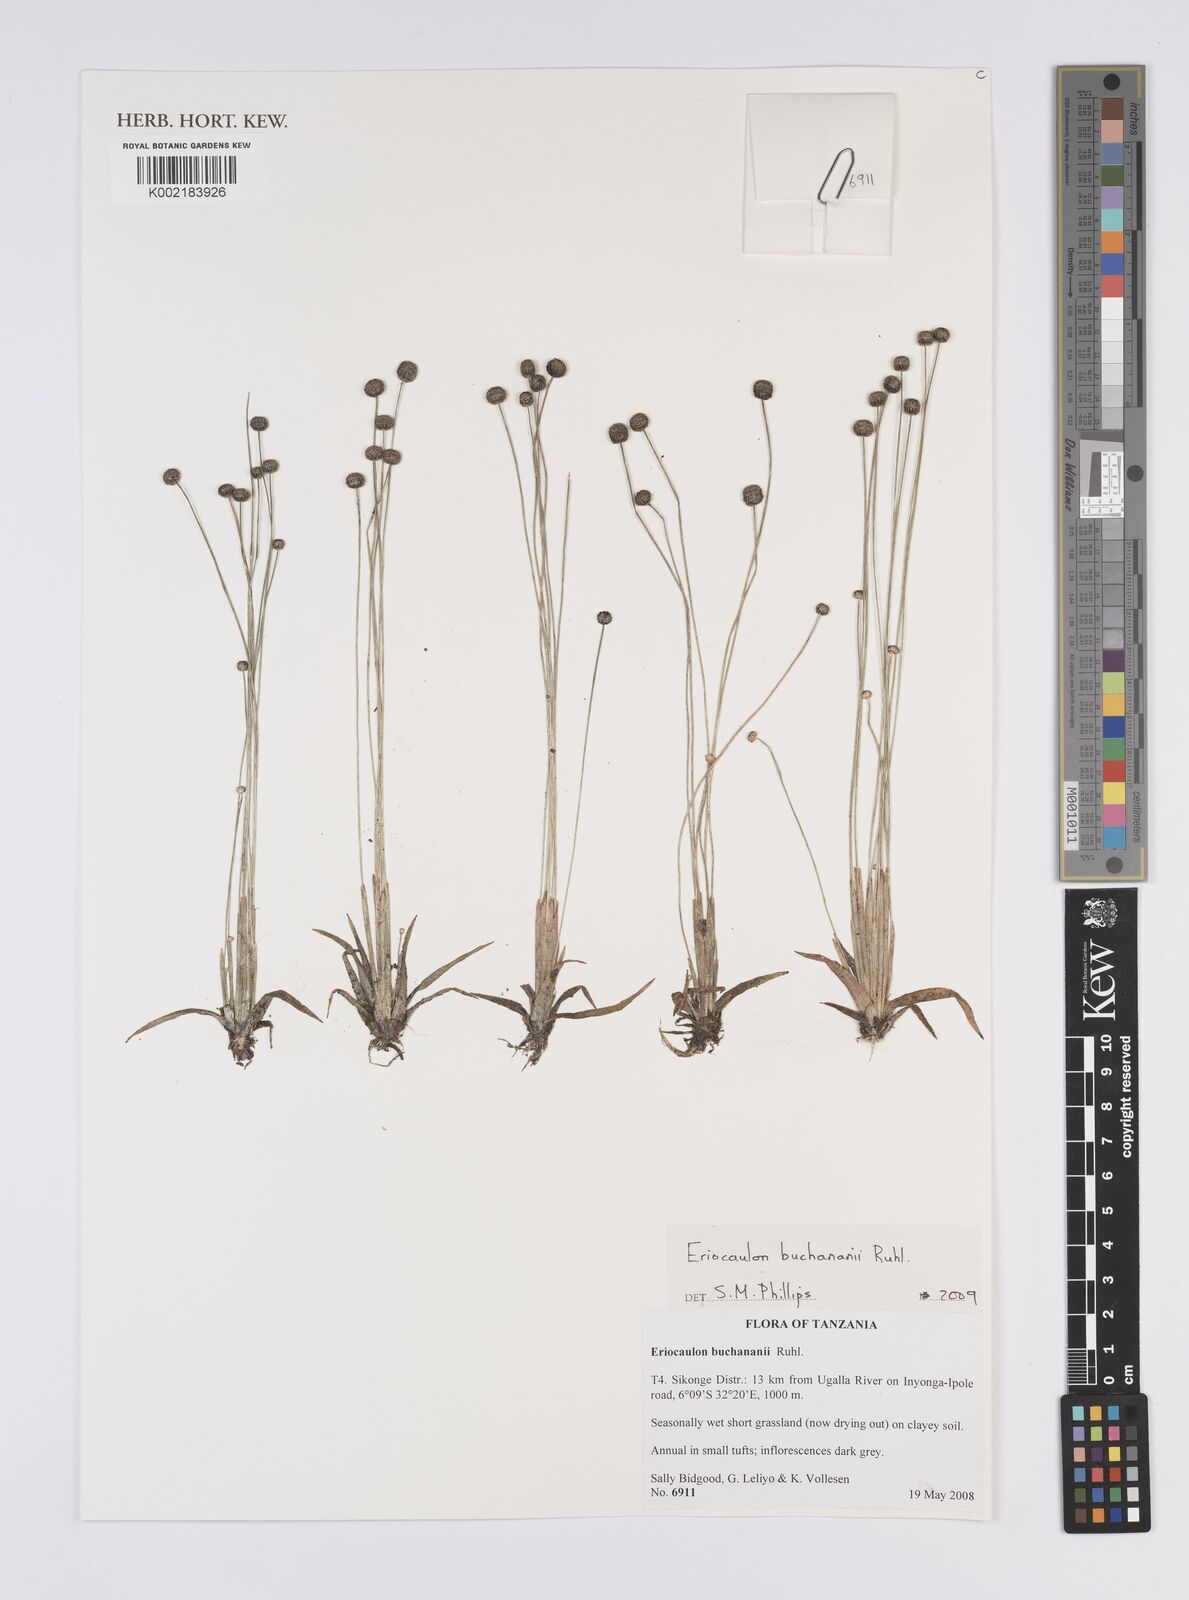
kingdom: Plantae
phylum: Tracheophyta
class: Liliopsida
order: Poales
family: Eriocaulaceae
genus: Eriocaulon
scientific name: Eriocaulon buchananii
